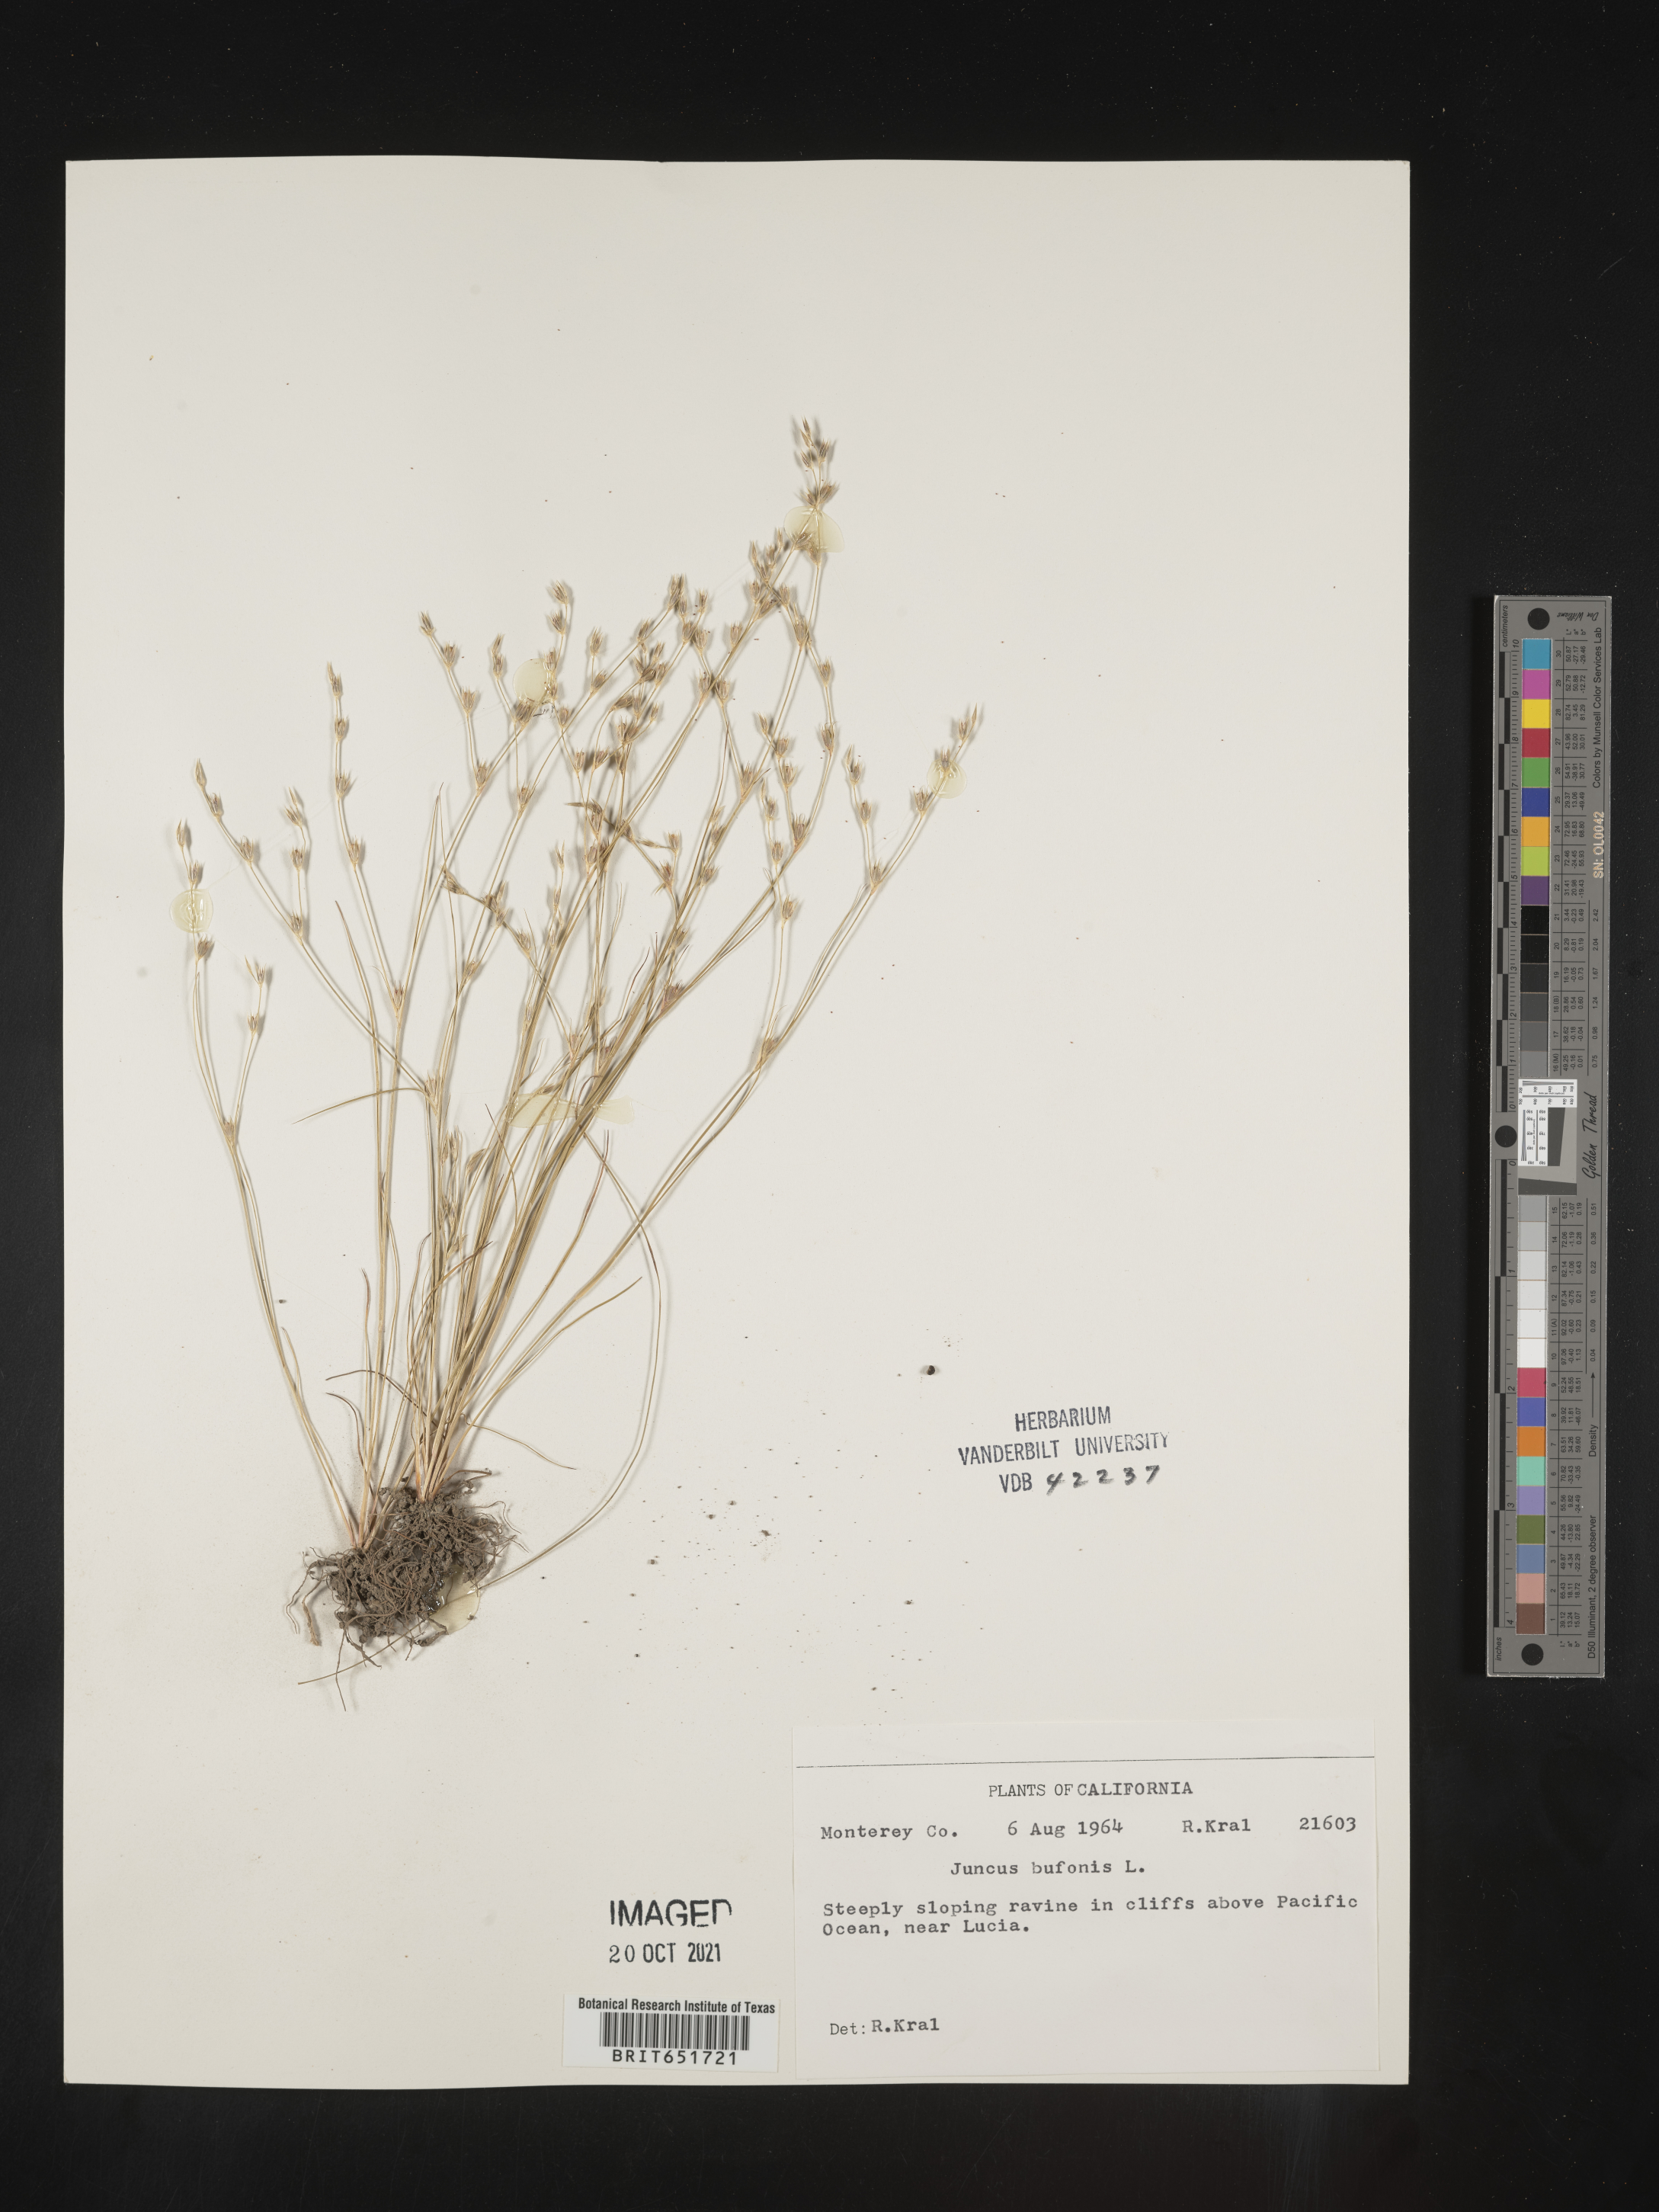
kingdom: Plantae
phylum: Tracheophyta
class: Liliopsida
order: Poales
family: Juncaceae
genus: Juncus
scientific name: Juncus bufonius
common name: Toad rush
